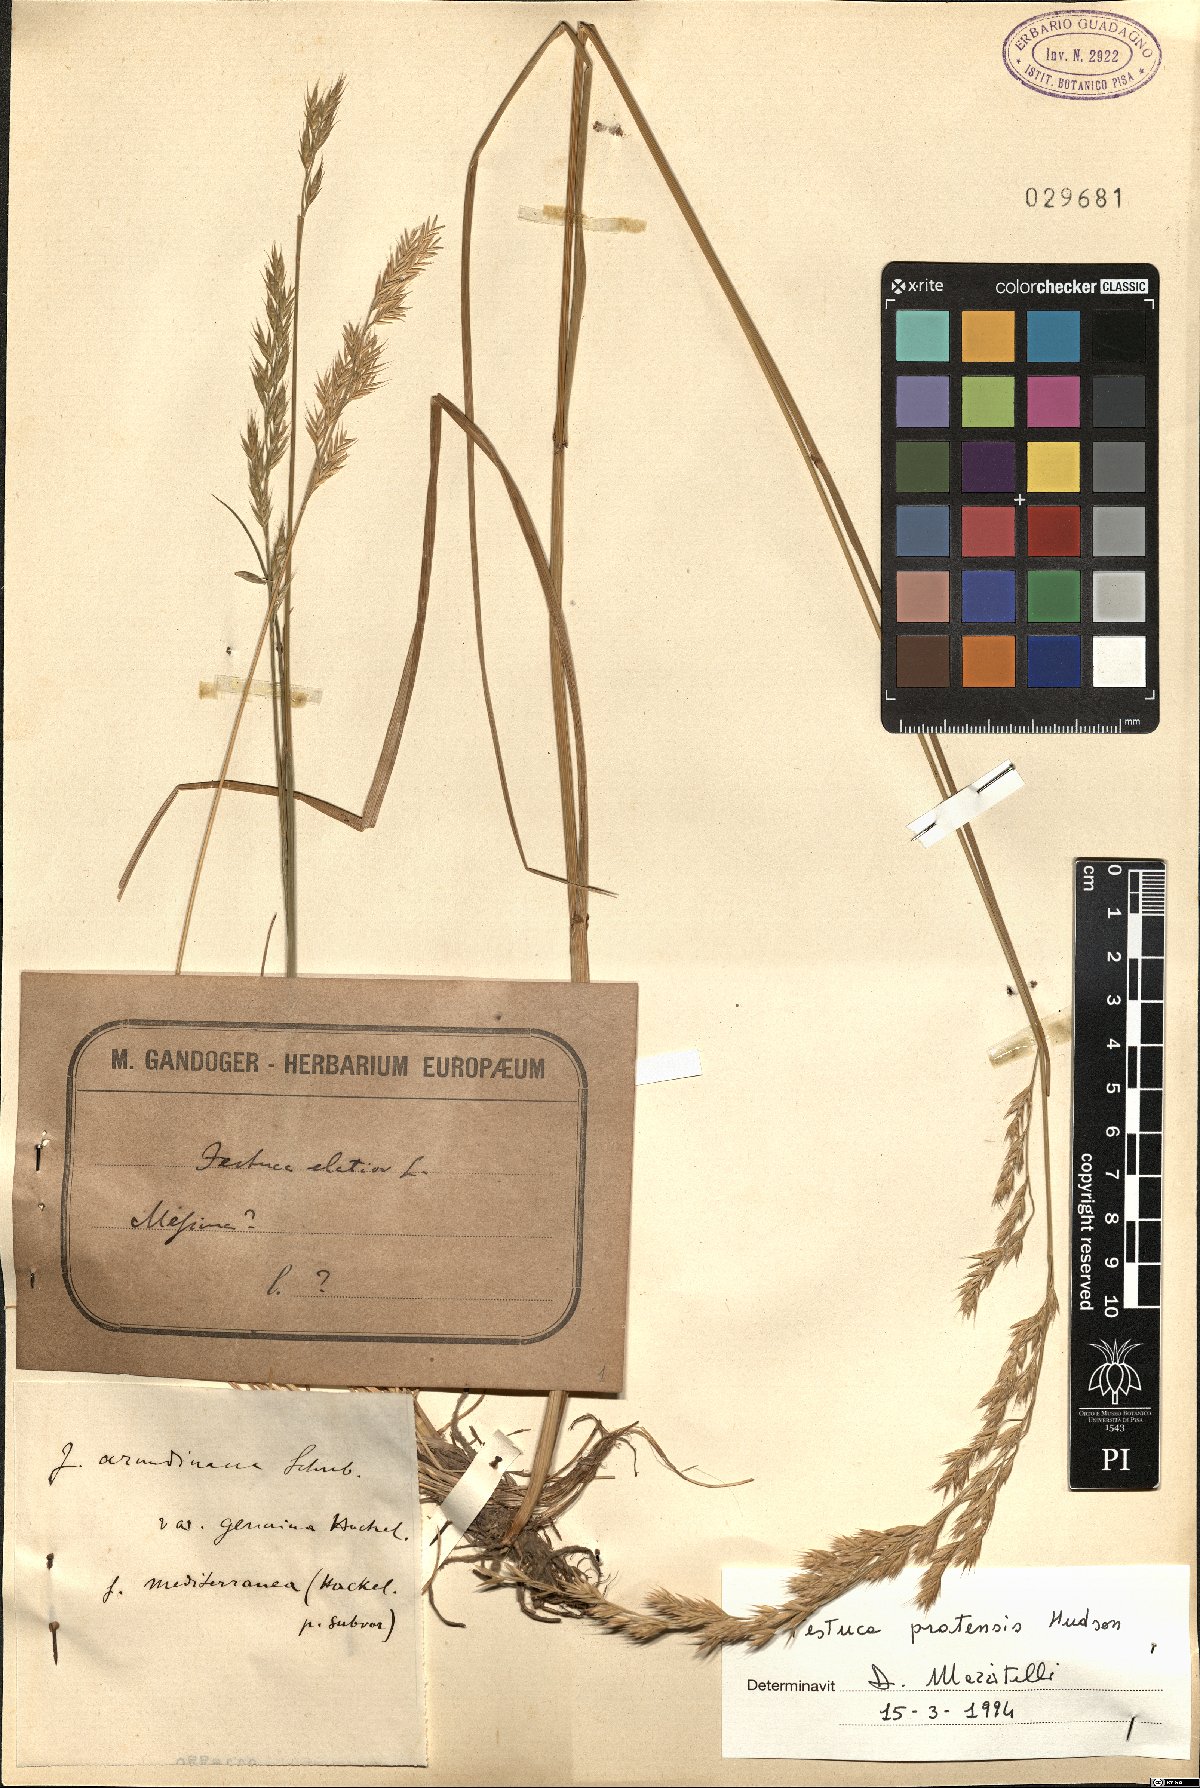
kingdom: Plantae
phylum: Tracheophyta
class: Liliopsida
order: Poales
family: Poaceae
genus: Lolium
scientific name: Lolium pratense
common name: Dover grass
